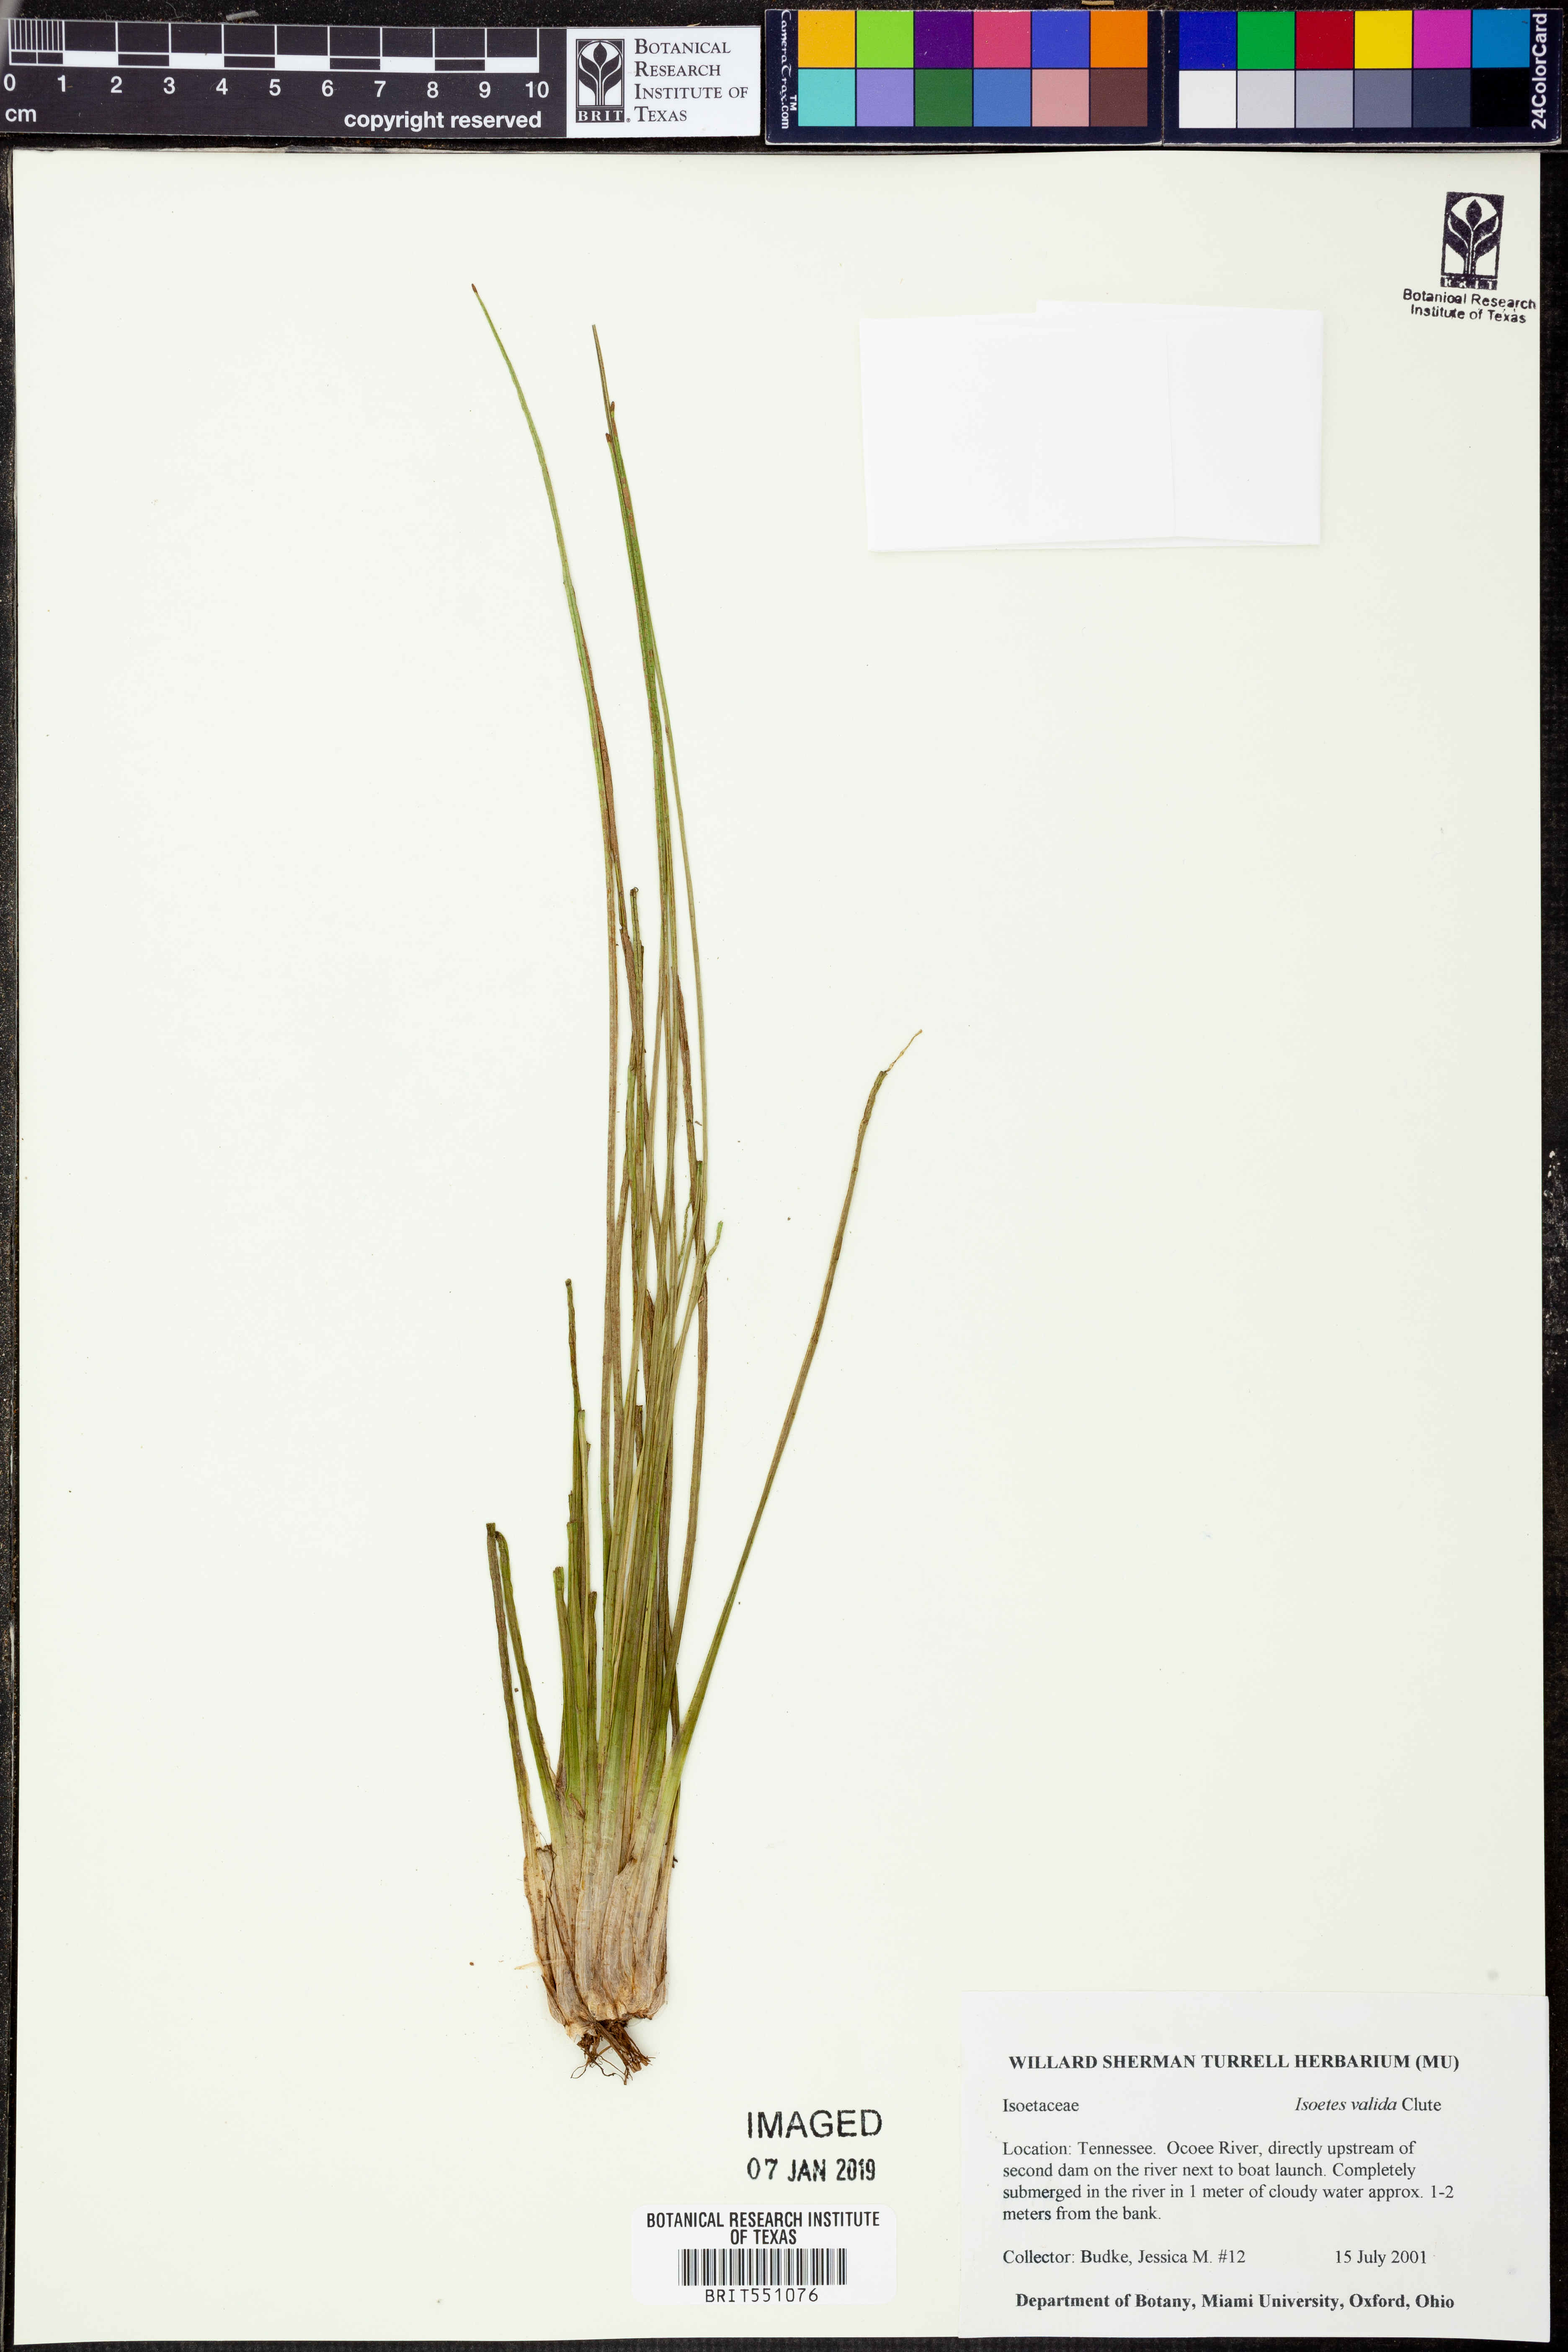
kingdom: Plantae
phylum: Tracheophyta
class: Lycopodiopsida
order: Isoetales
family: Isoetaceae
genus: Isoetes
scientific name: Isoetes valida
